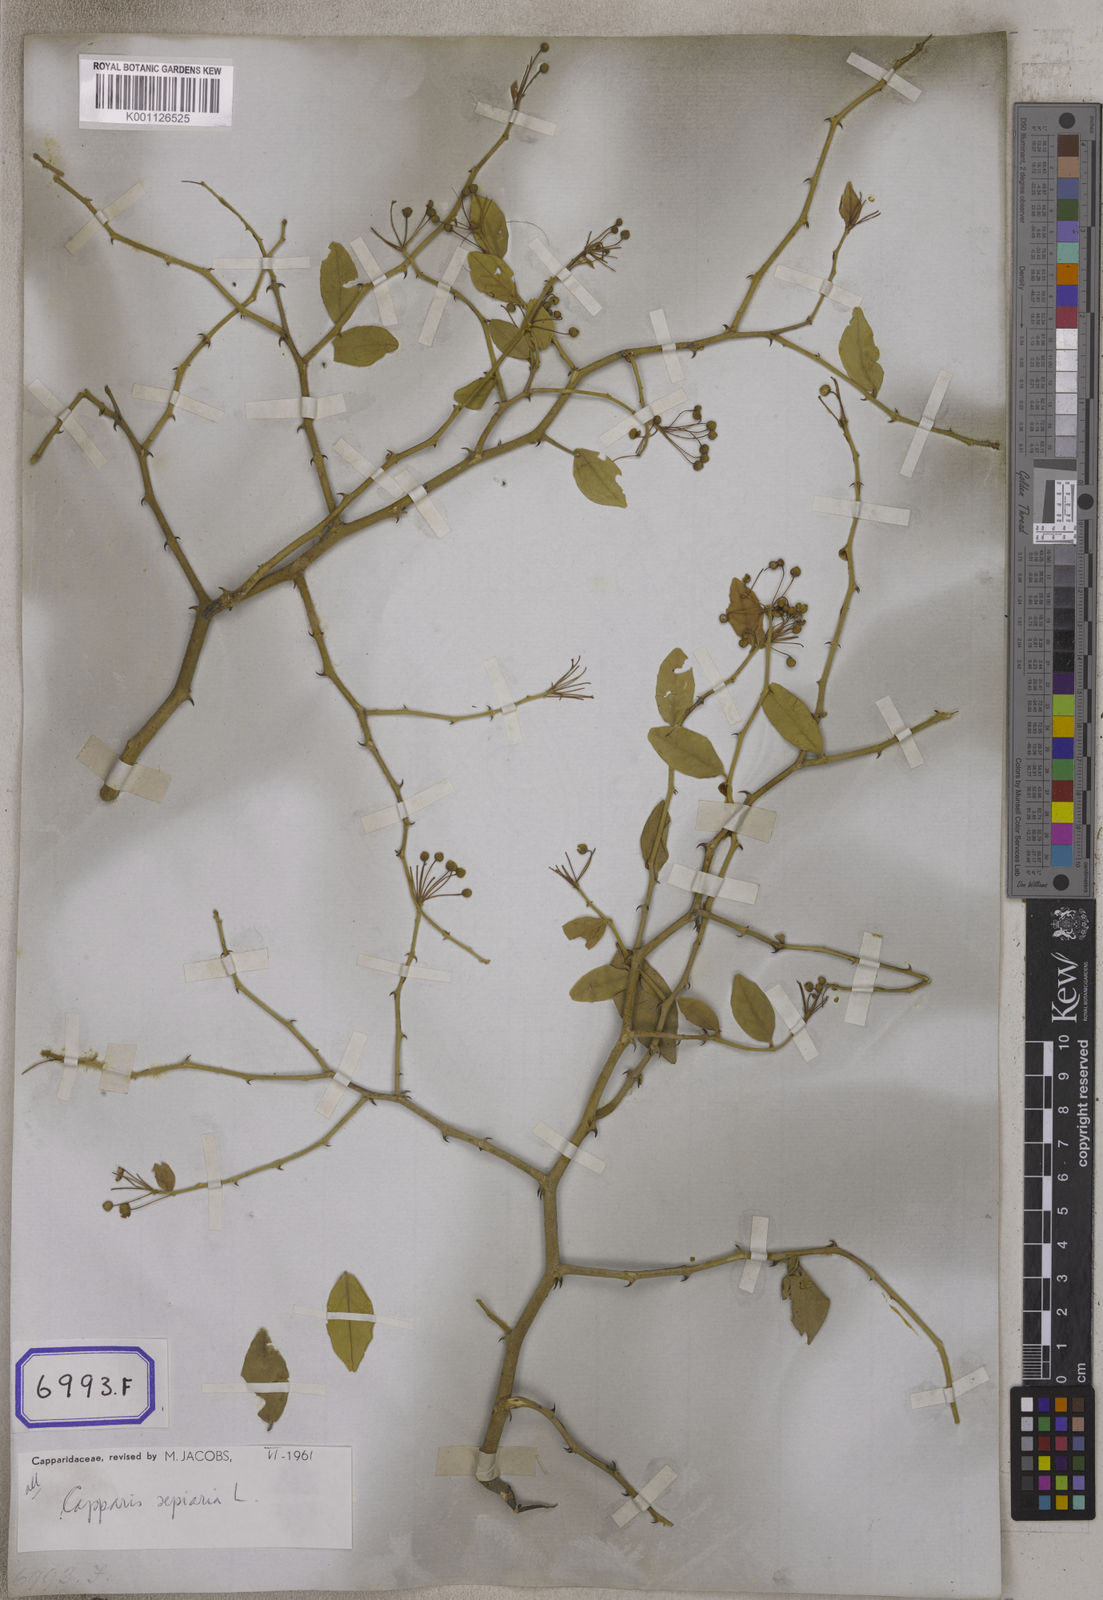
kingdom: Plantae
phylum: Tracheophyta
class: Magnoliopsida
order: Brassicales
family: Capparaceae
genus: Capparis
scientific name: Capparis
